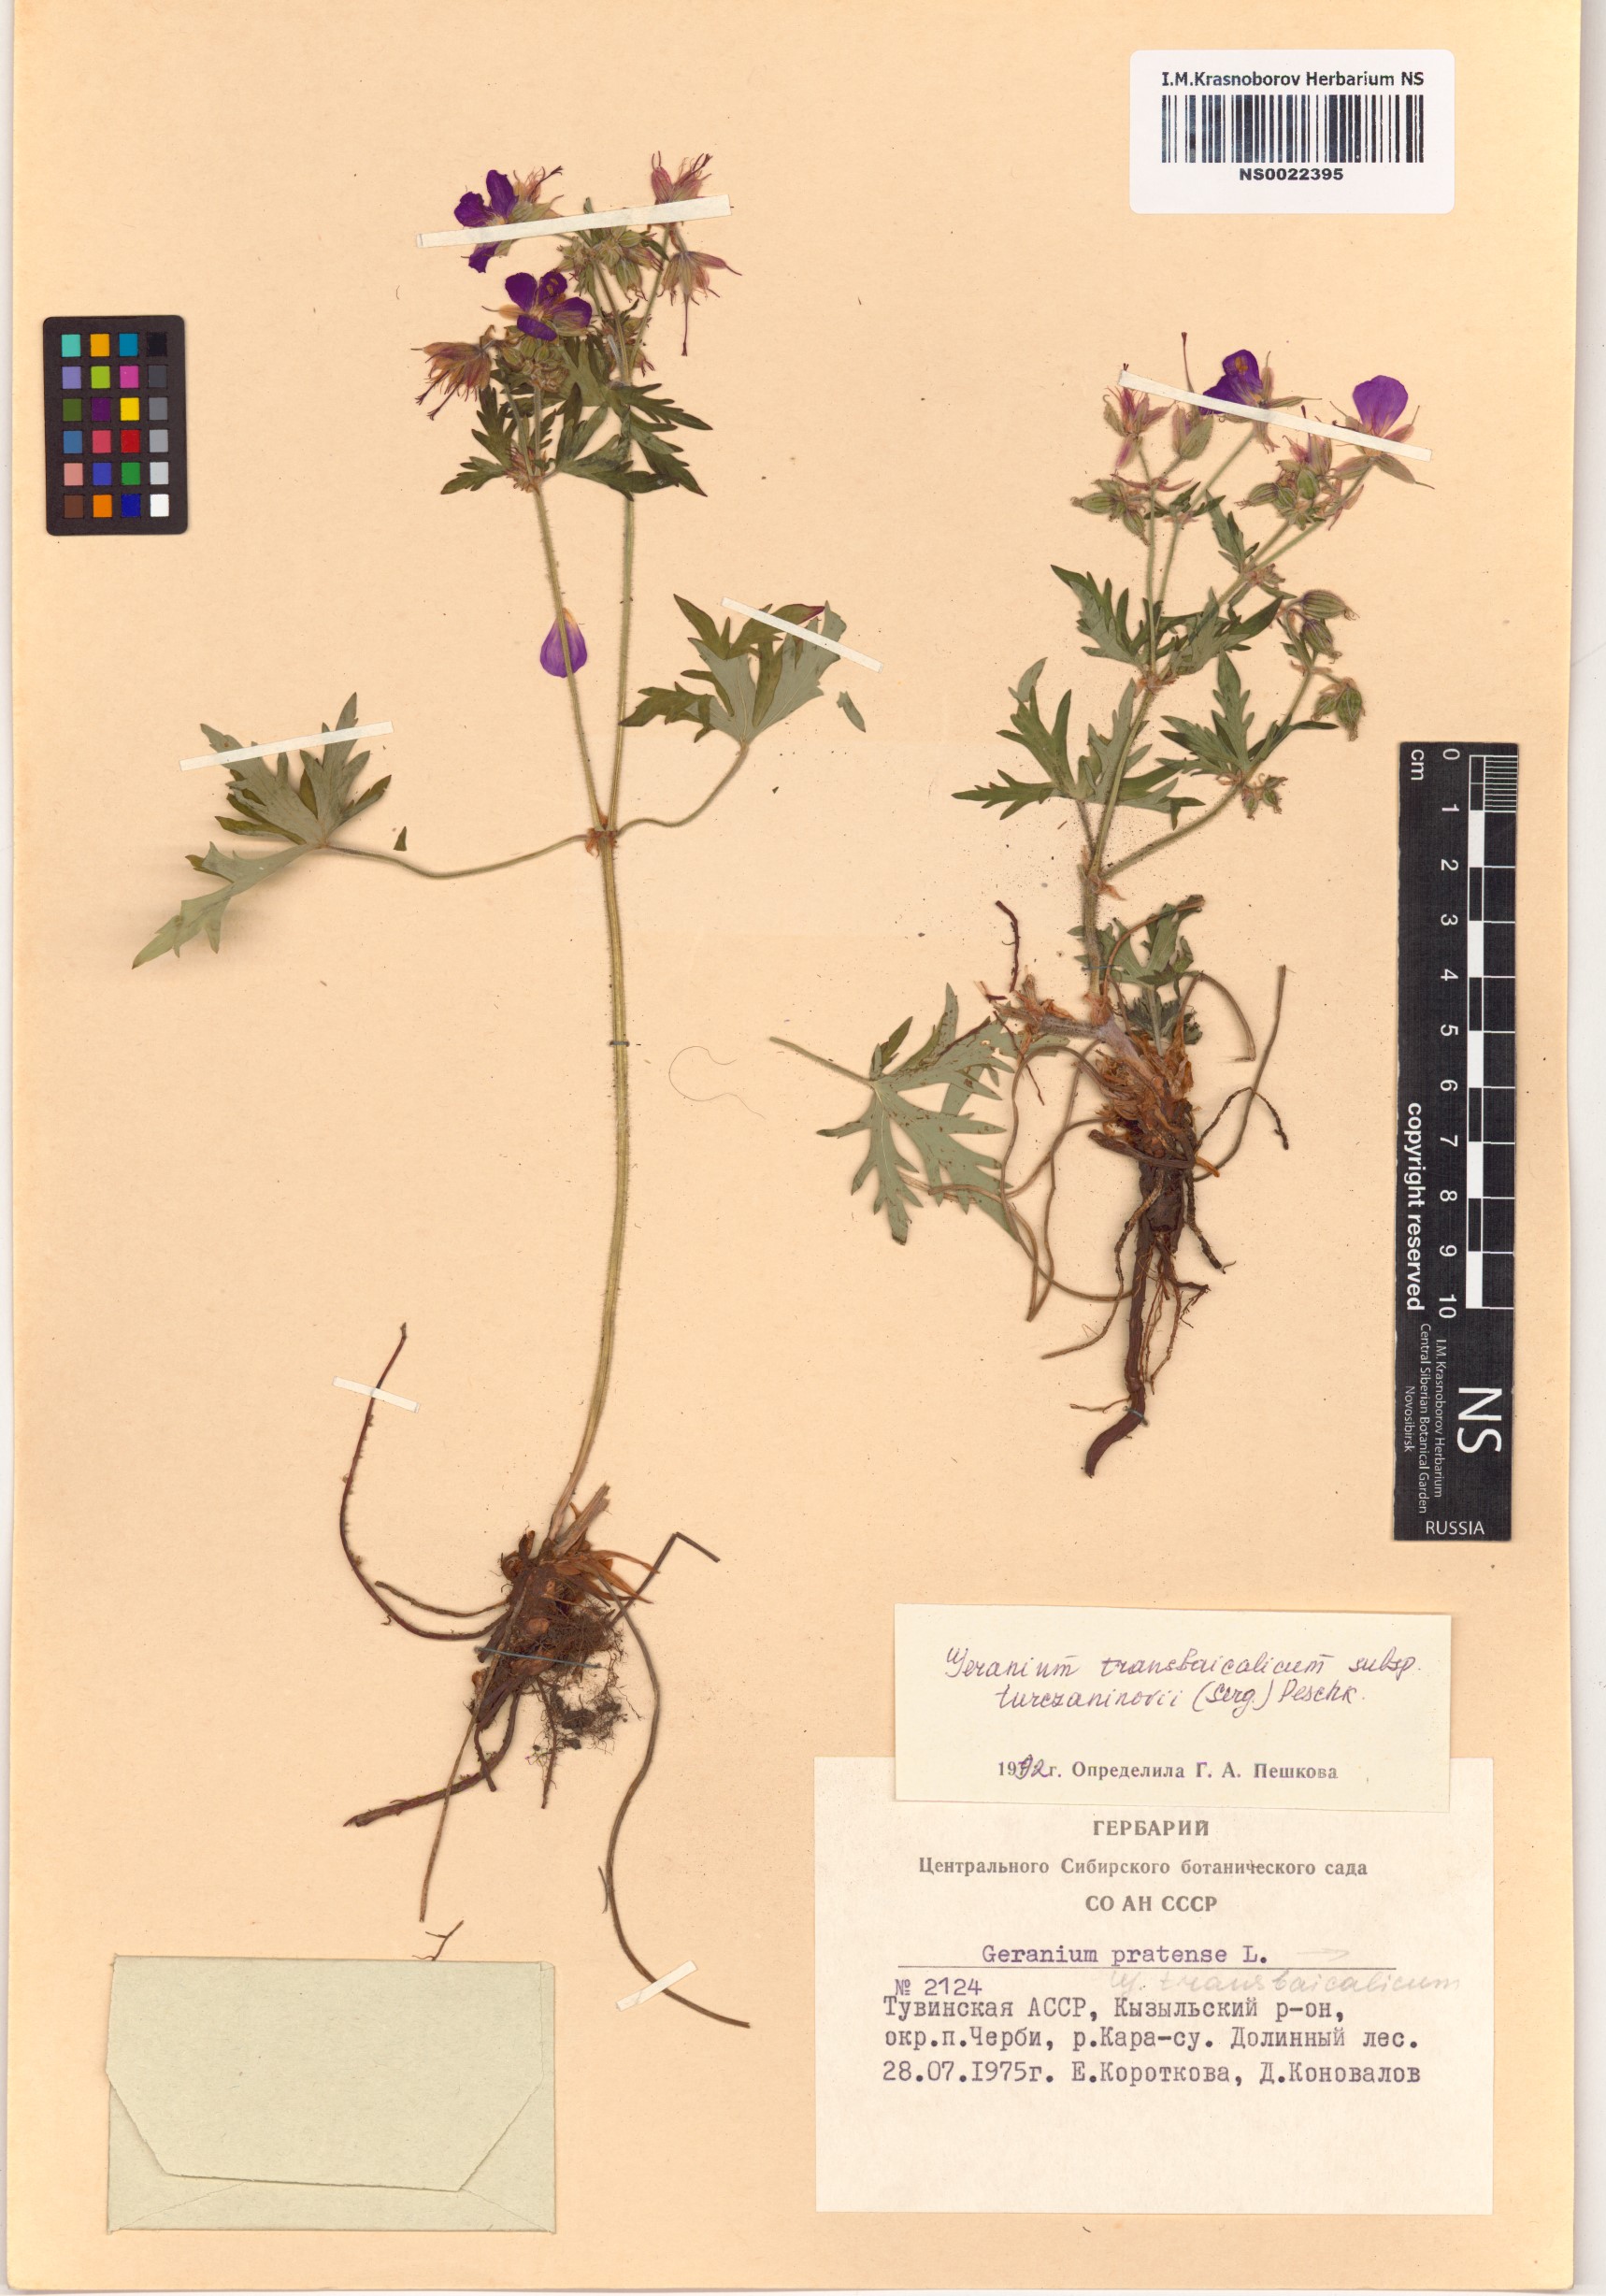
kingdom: Plantae
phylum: Tracheophyta
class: Magnoliopsida
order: Geraniales
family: Geraniaceae
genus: Geranium
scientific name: Geranium pratense
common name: Meadow crane's-bill
